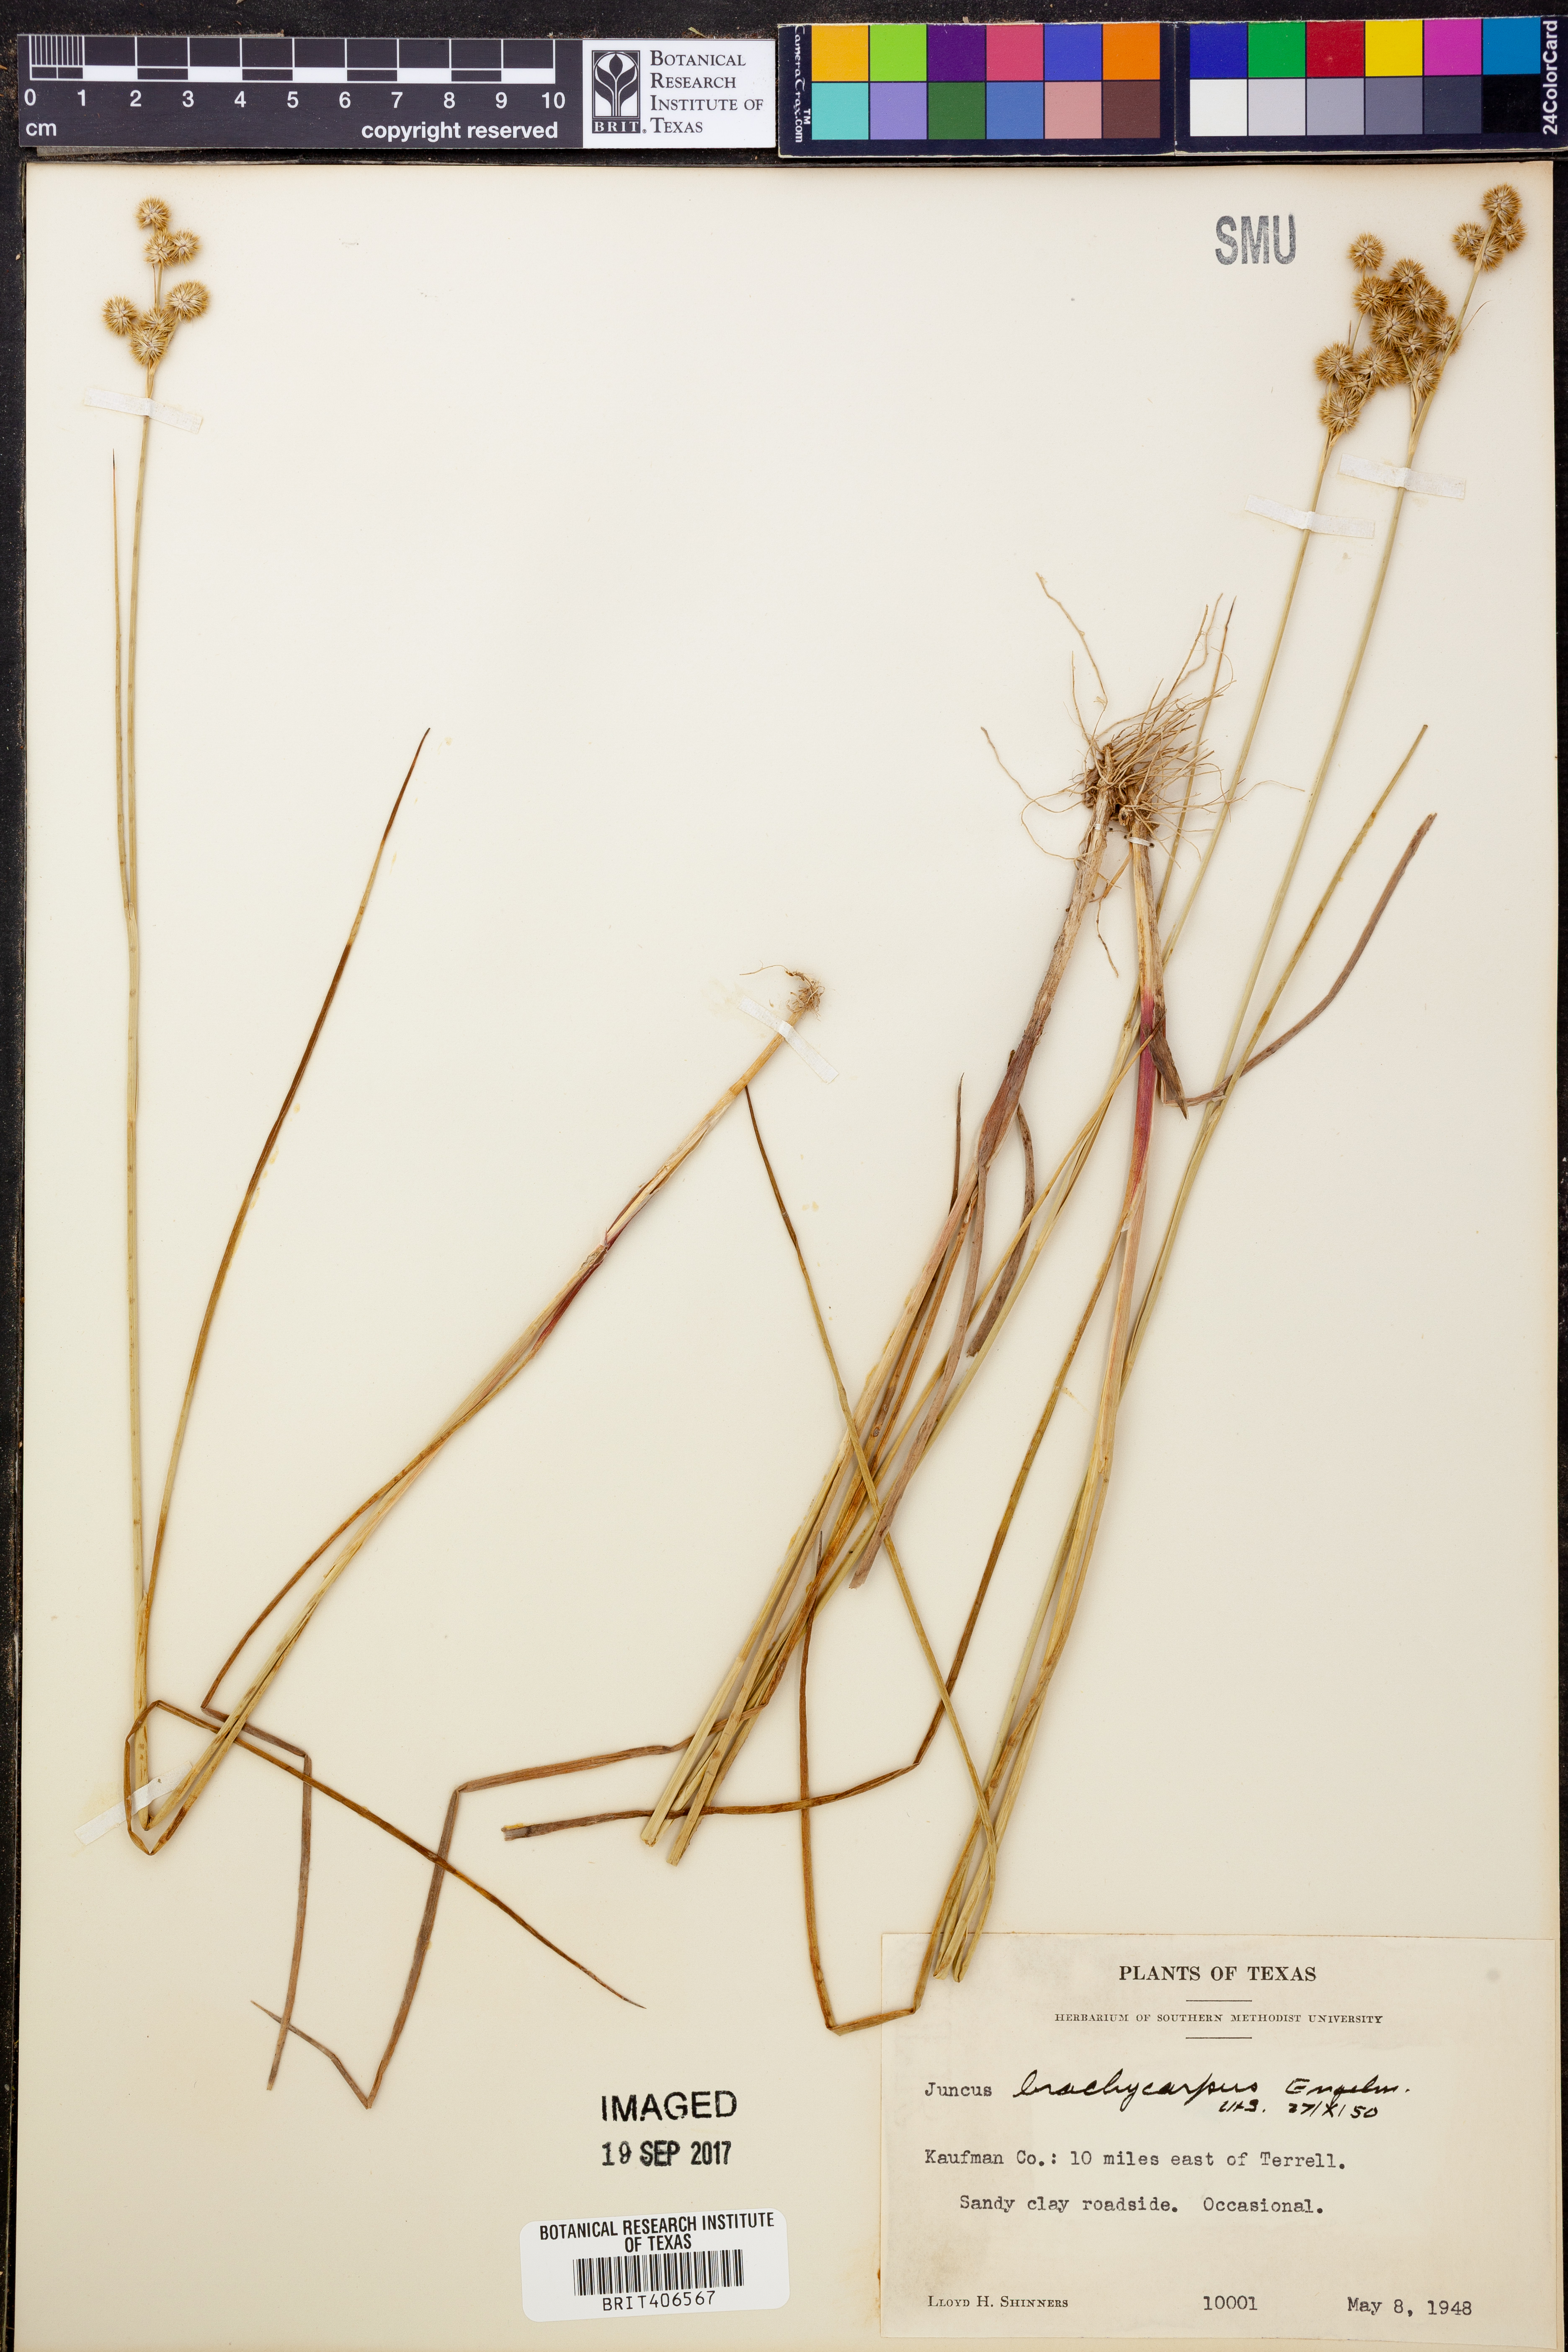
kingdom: Plantae
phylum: Tracheophyta
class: Liliopsida
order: Poales
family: Juncaceae
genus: Juncus
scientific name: Juncus brachycarpus
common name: Shore rush
